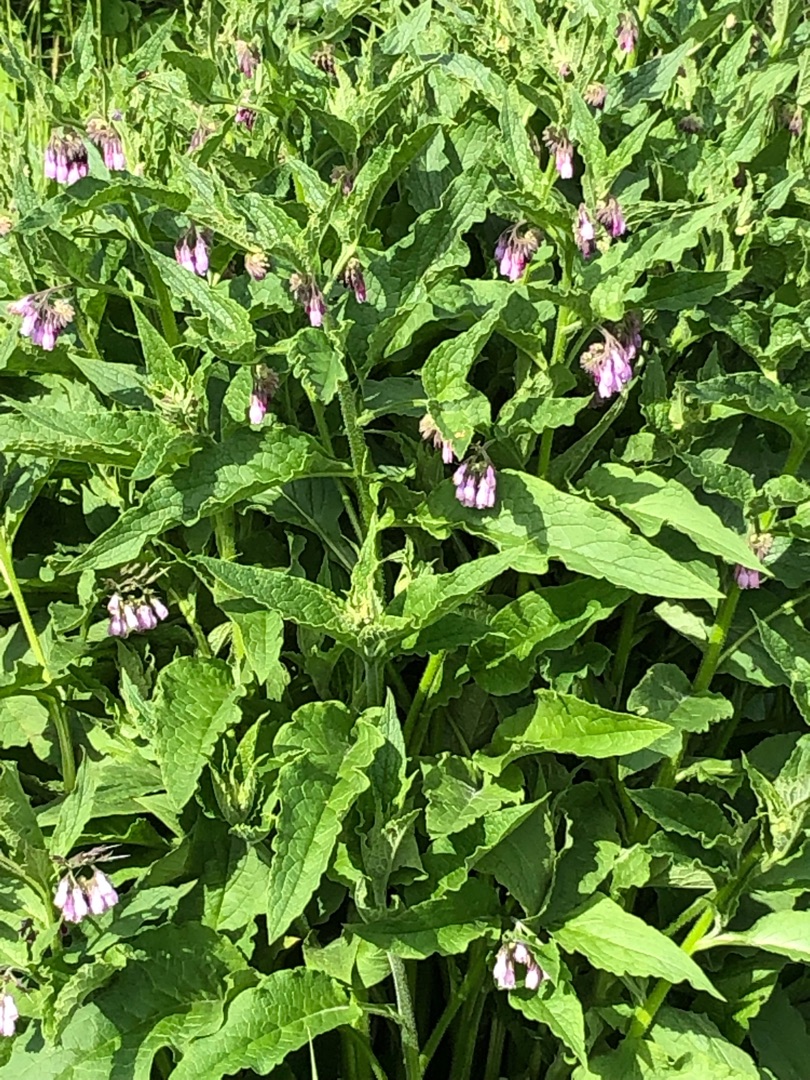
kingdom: Plantae
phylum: Tracheophyta
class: Magnoliopsida
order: Boraginales
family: Boraginaceae
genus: Symphytum
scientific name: Symphytum uplandicum
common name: Foder-kulsukker
